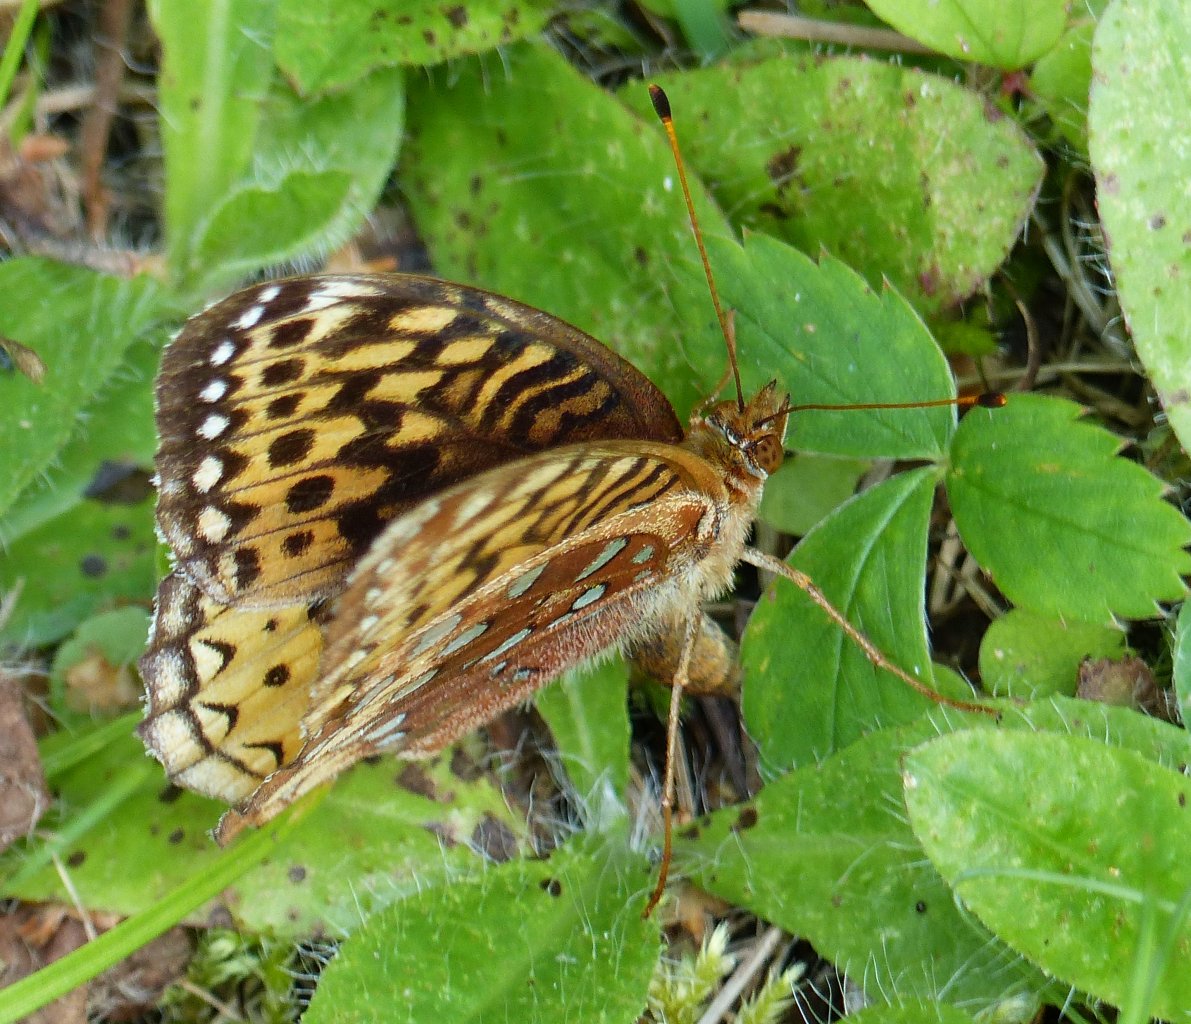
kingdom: Animalia
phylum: Arthropoda
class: Insecta
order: Lepidoptera
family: Nymphalidae
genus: Speyeria
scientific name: Speyeria cybele
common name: Great Spangled Fritillary
